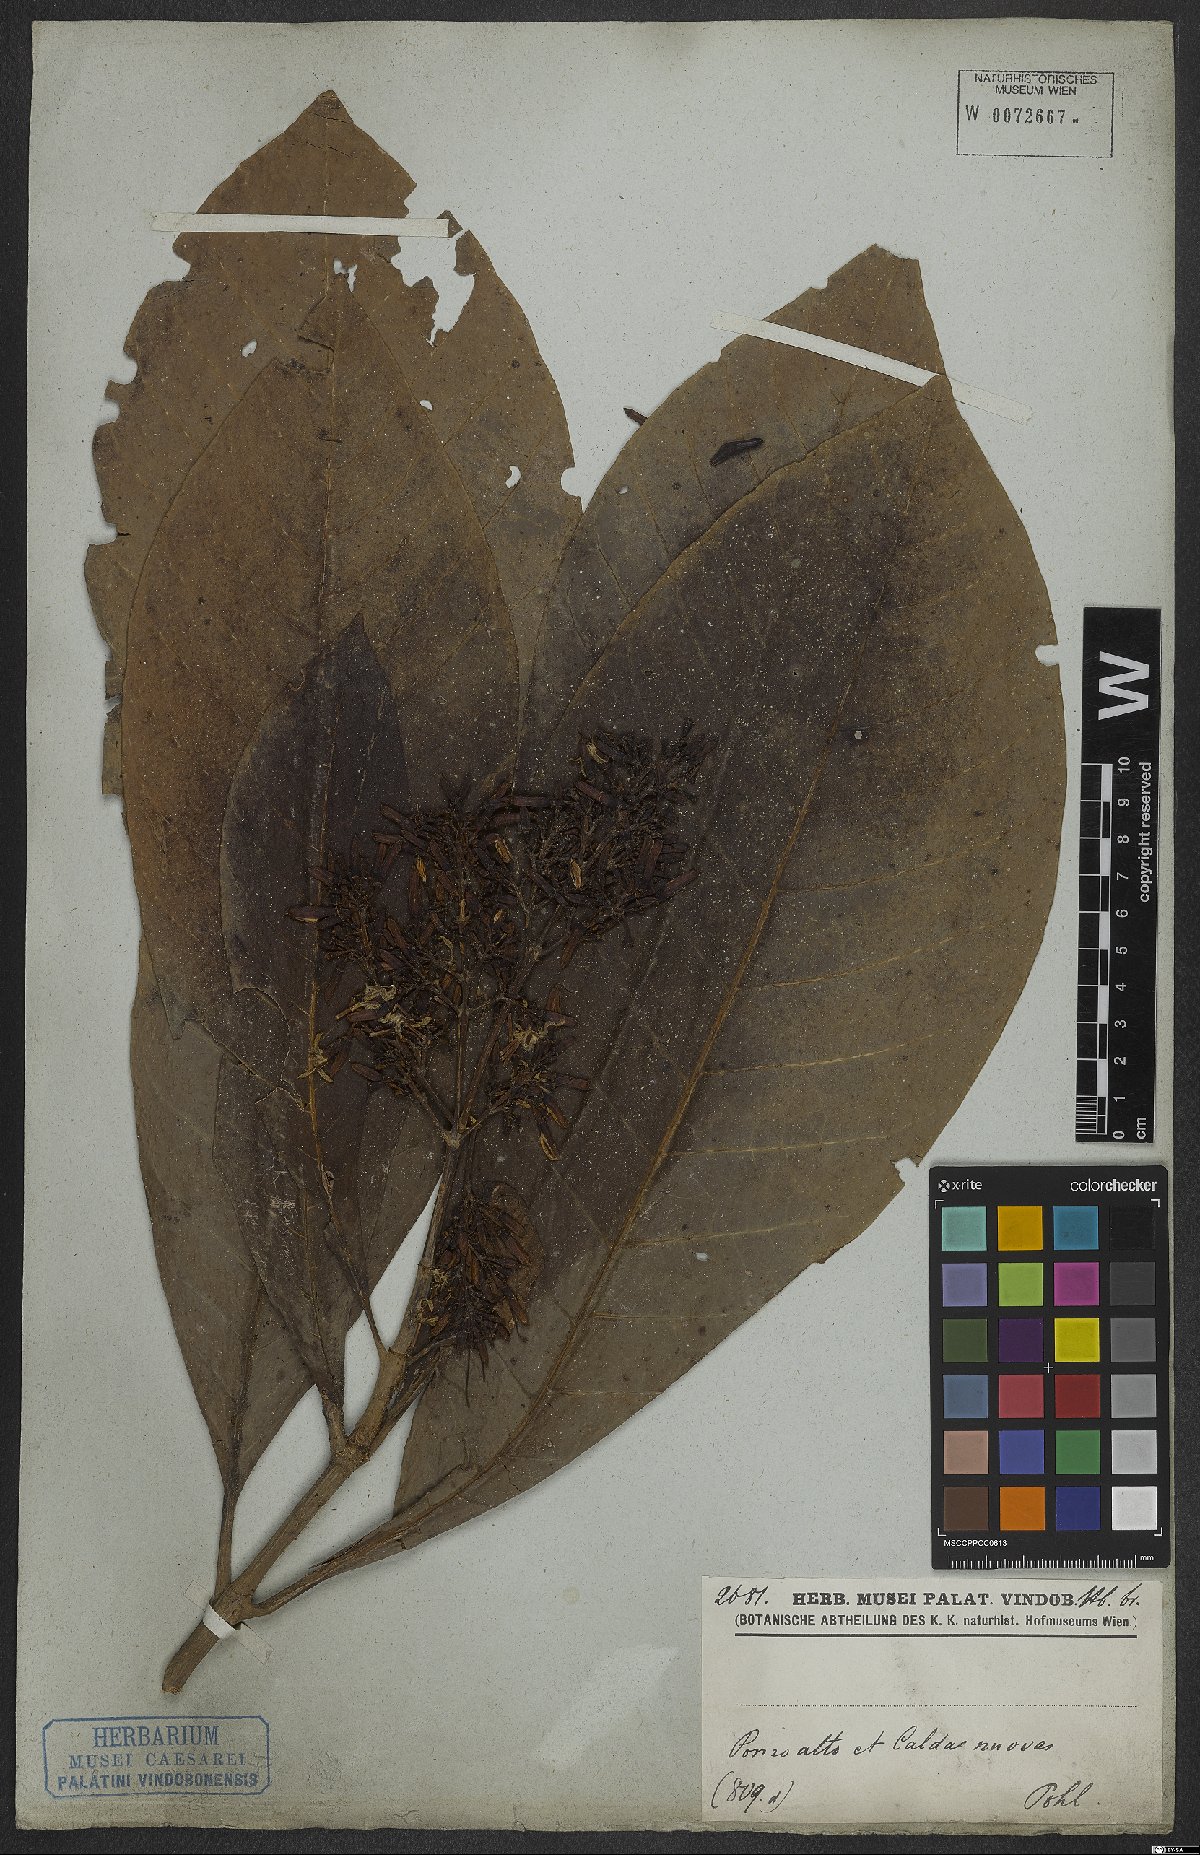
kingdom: Plantae
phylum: Tracheophyta
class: Magnoliopsida
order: Gentianales
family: Rubiaceae
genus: Rustia
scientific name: Rustia formosa
